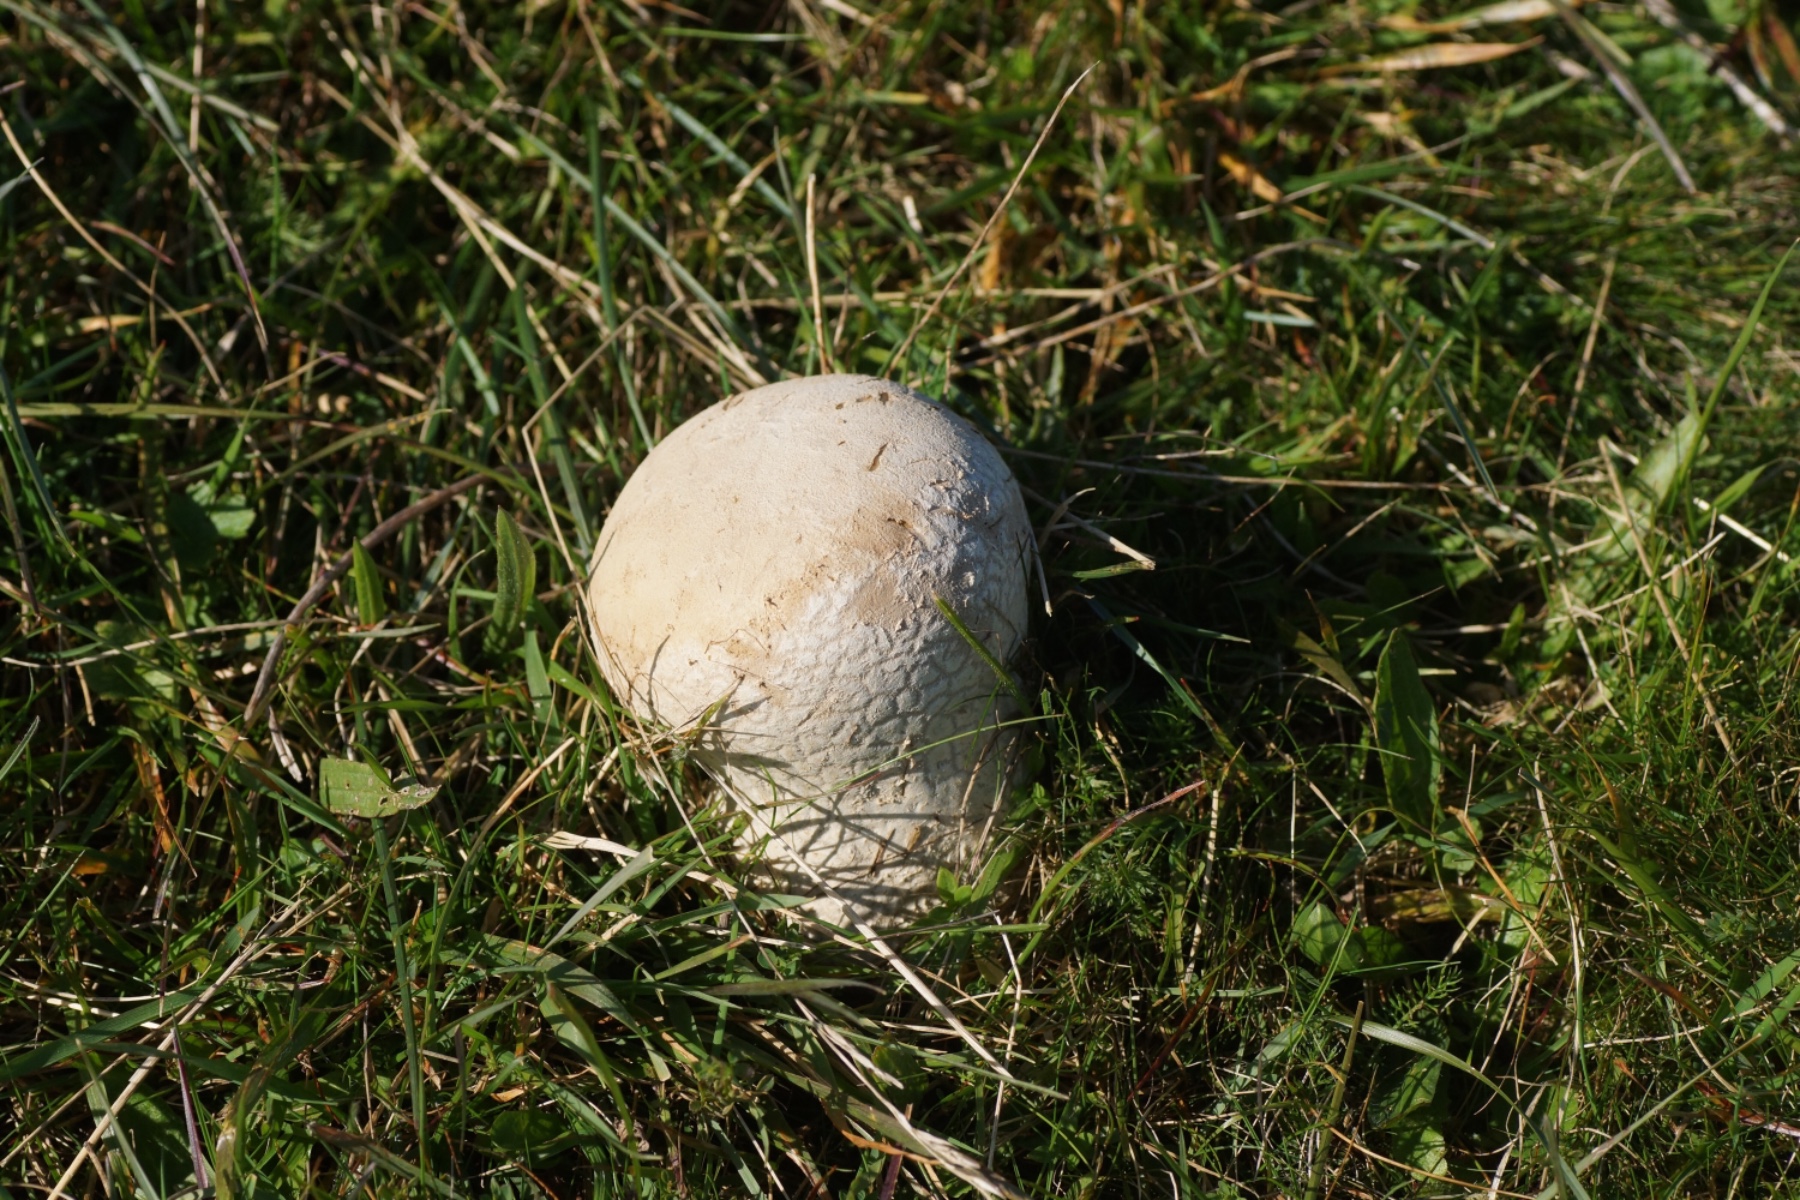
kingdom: Fungi
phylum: Basidiomycota
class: Agaricomycetes
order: Agaricales
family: Lycoperdaceae
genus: Bovistella
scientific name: Bovistella utriformis
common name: skællet støvbold
